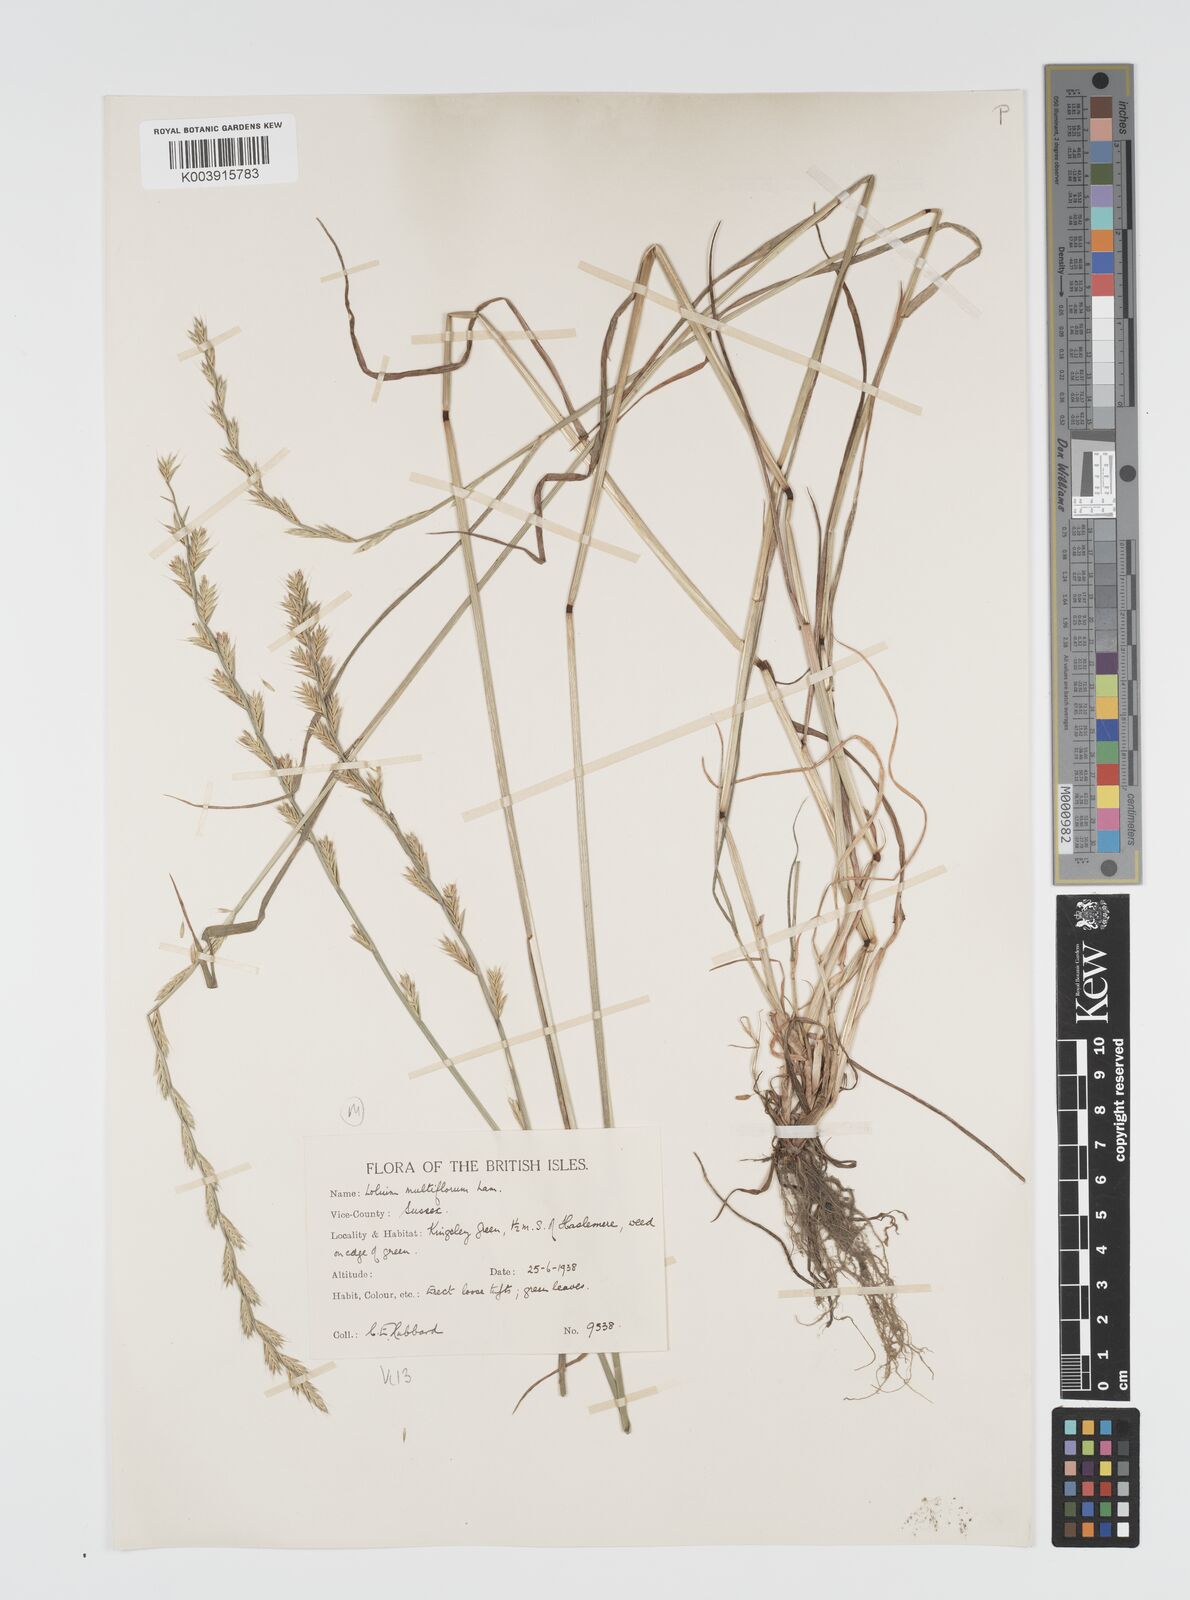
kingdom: Plantae
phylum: Tracheophyta
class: Liliopsida
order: Poales
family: Poaceae
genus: Lolium
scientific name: Lolium multiflorum
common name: Annual ryegrass
